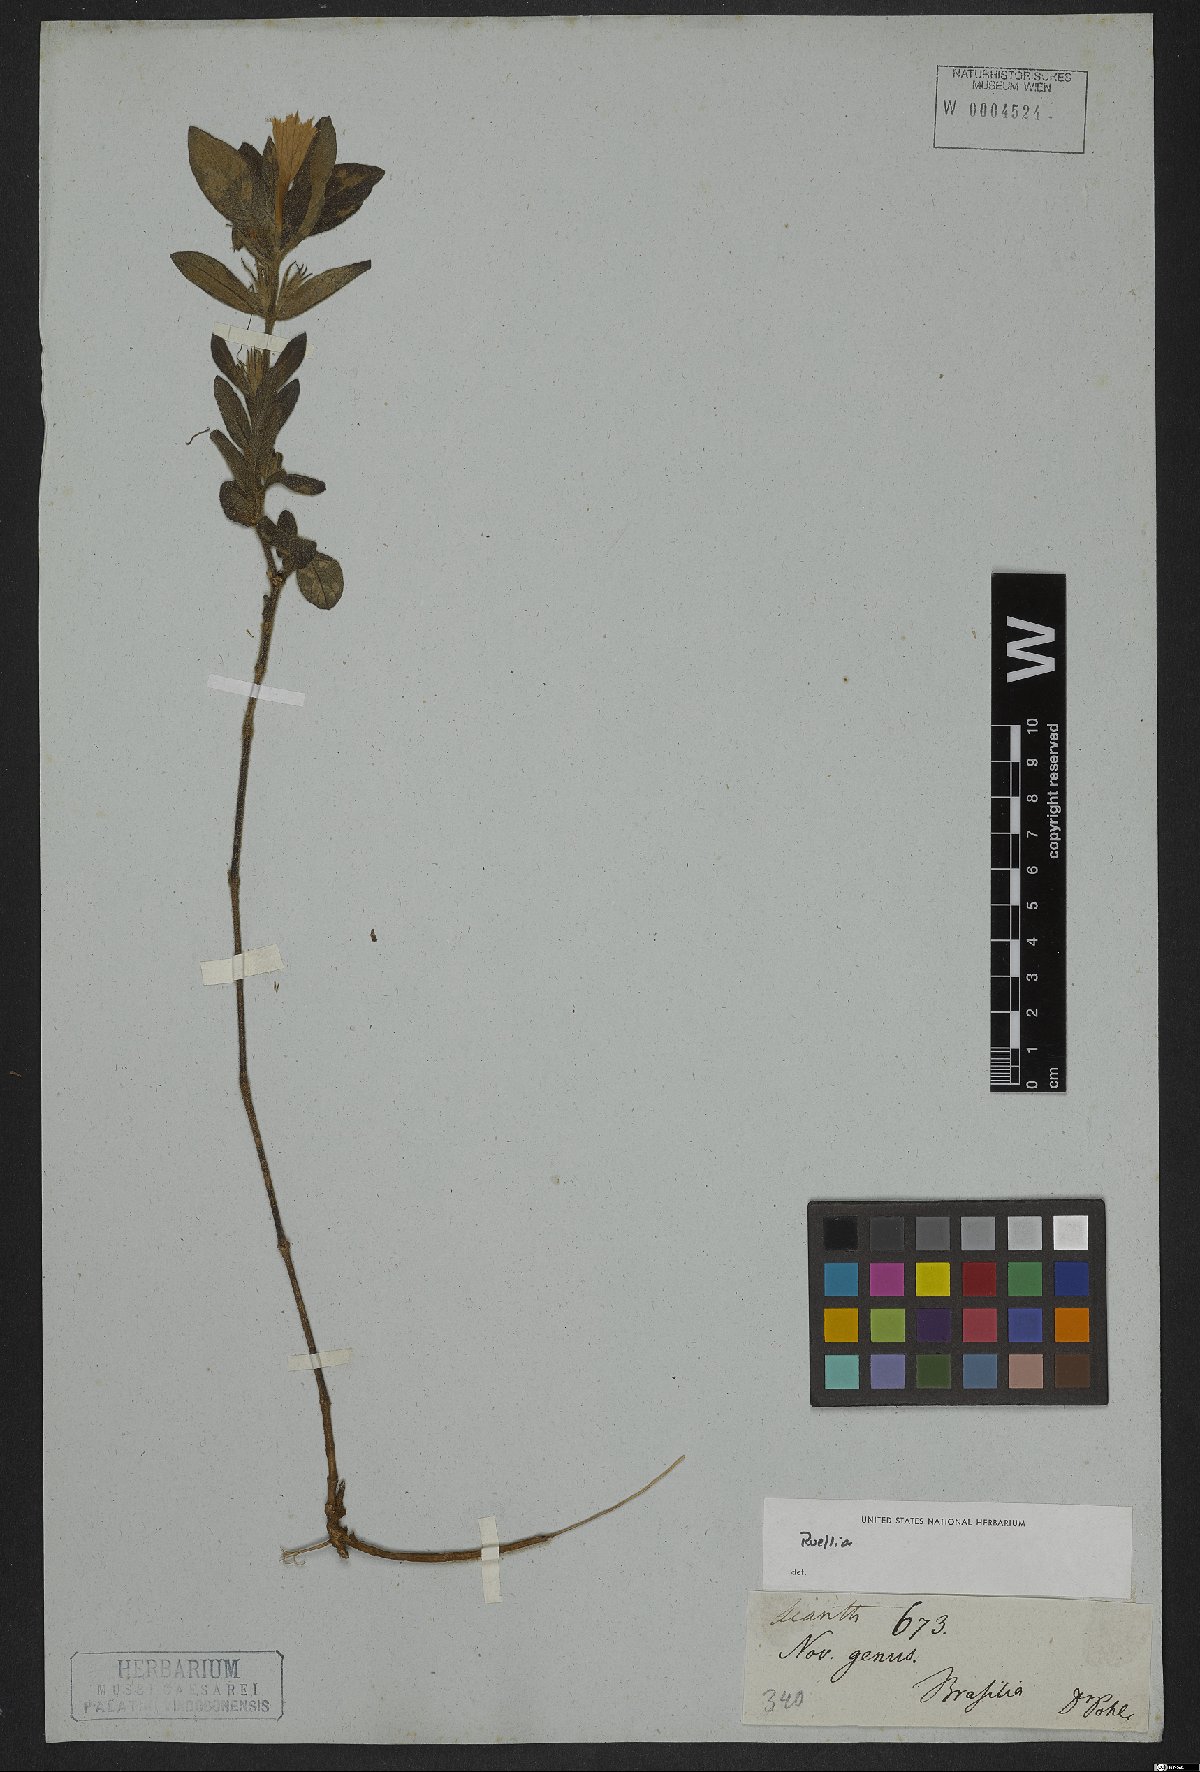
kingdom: Plantae
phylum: Tracheophyta
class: Magnoliopsida
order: Lamiales
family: Acanthaceae
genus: Ruellia
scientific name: Ruellia
